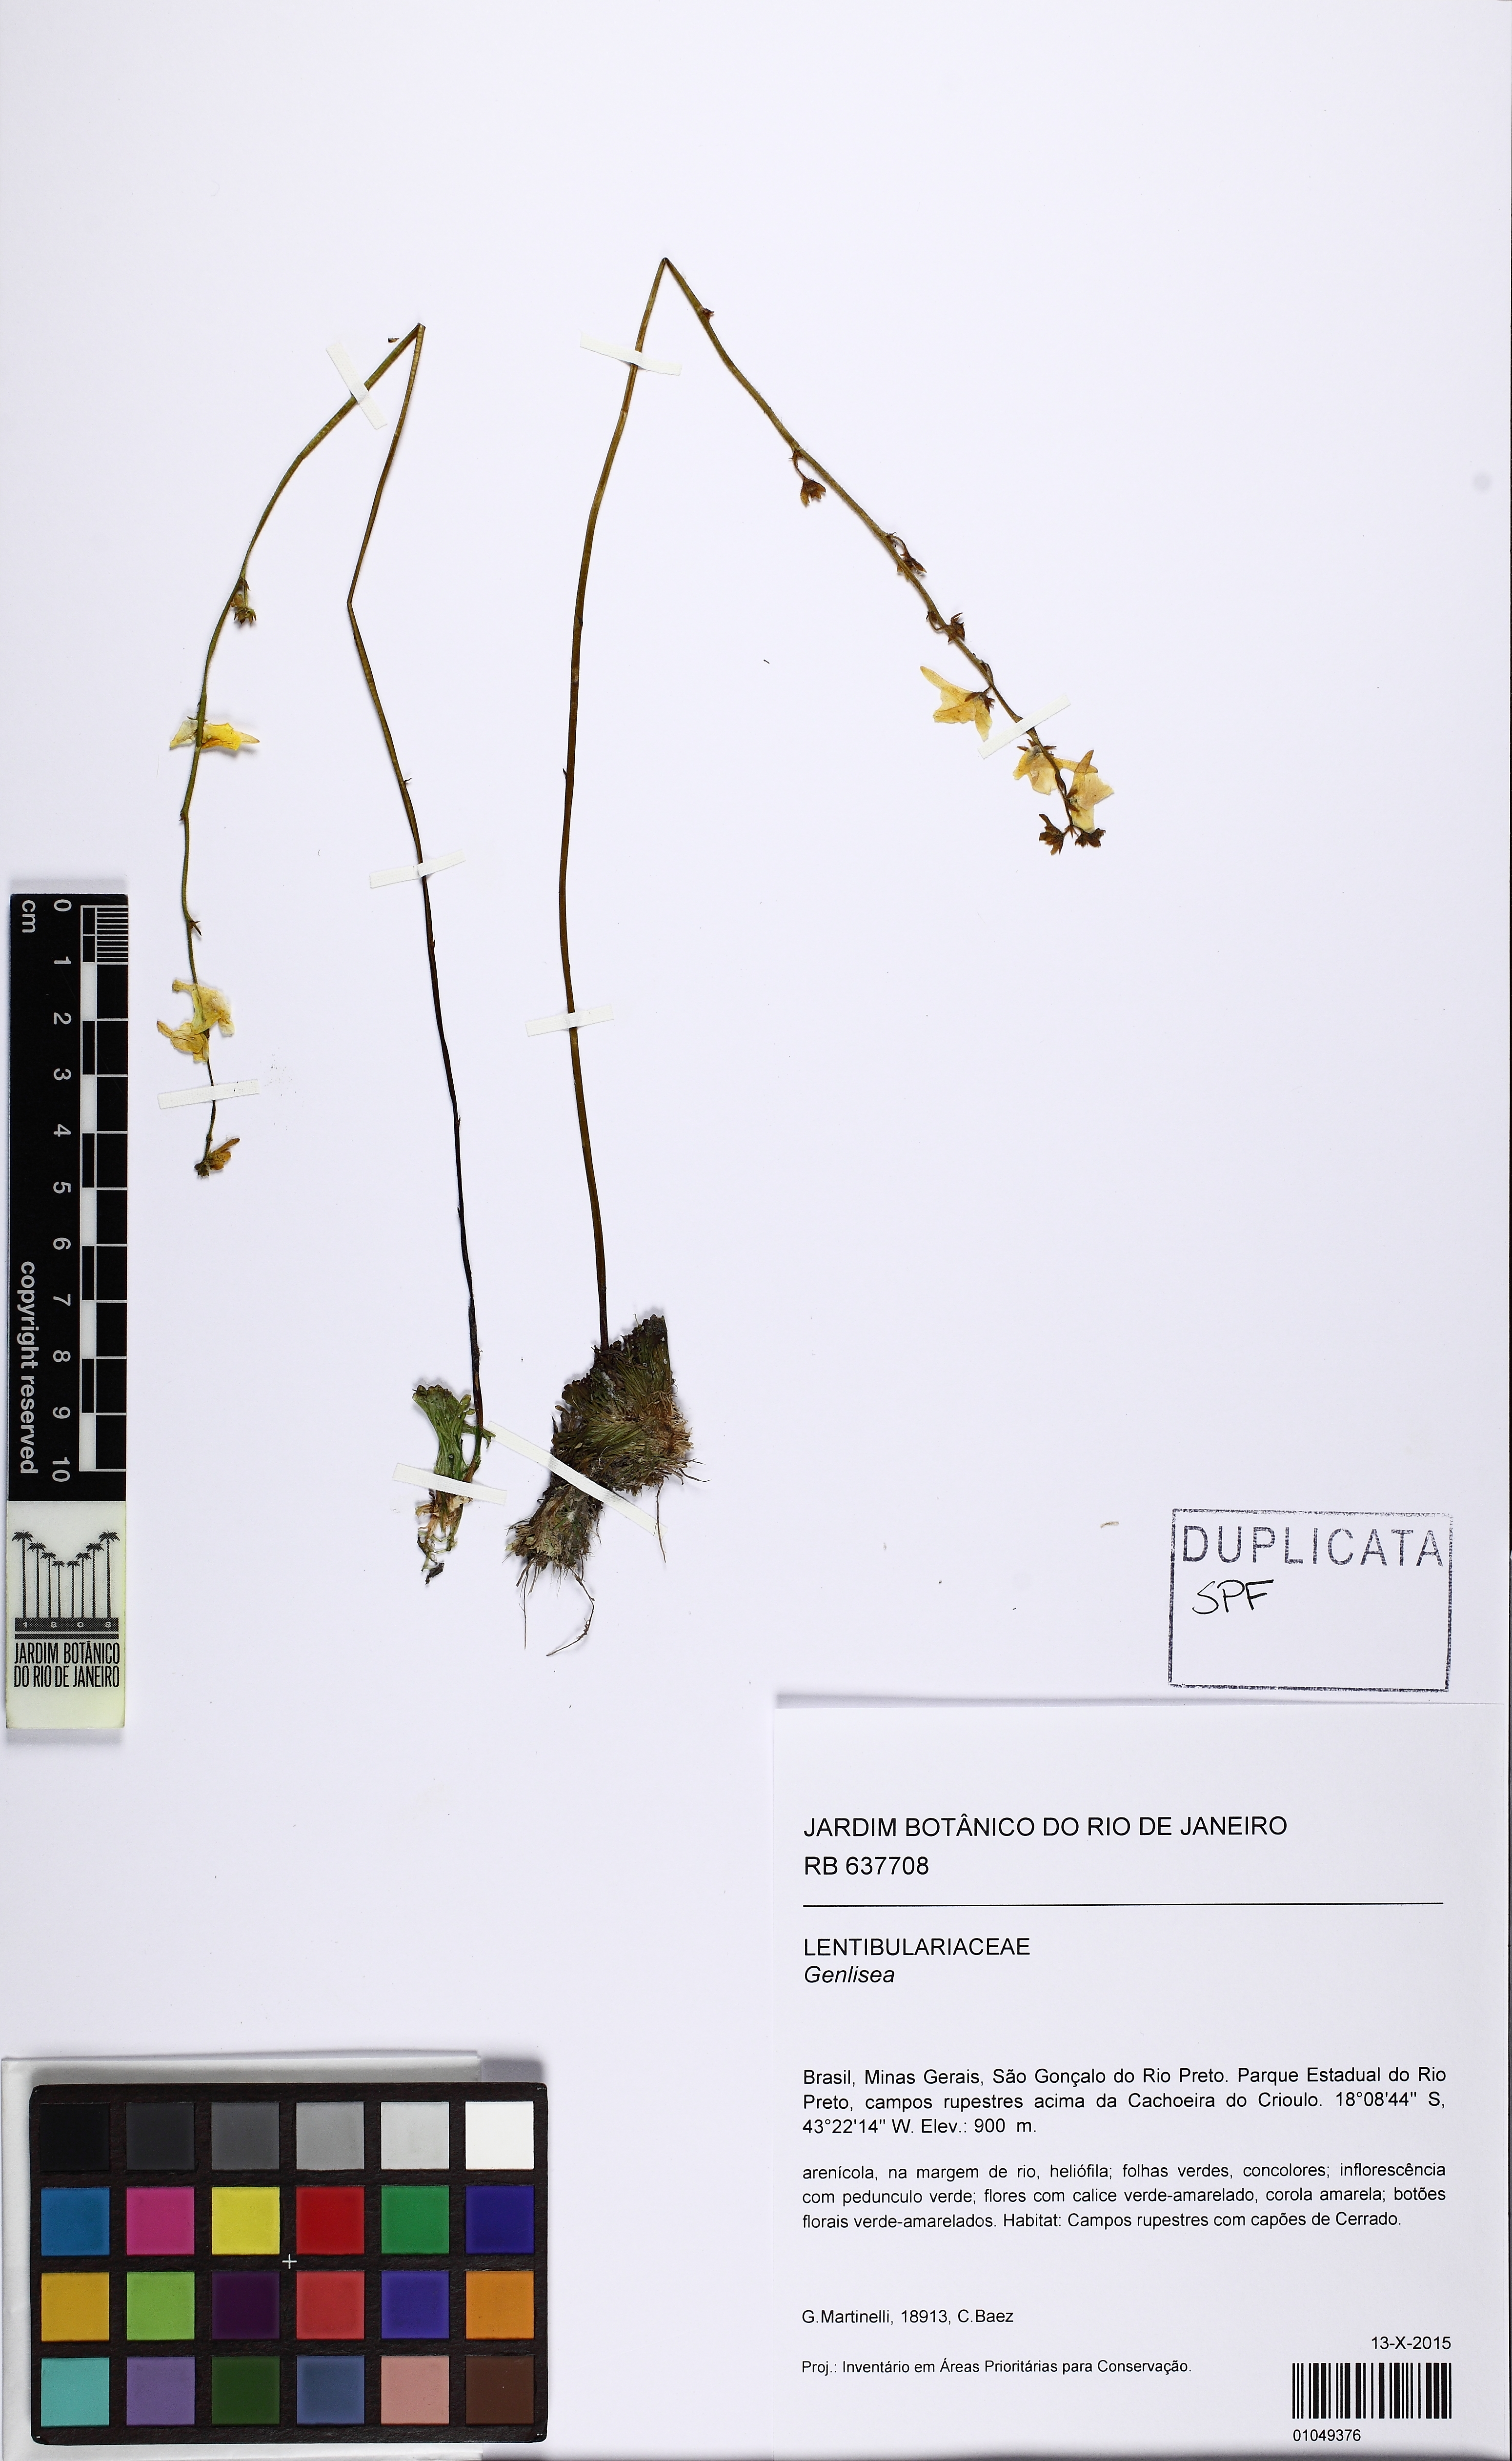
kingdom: Plantae
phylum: Tracheophyta
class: Magnoliopsida
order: Lamiales
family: Lentibulariaceae
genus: Genlisea
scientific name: Genlisea aurea
